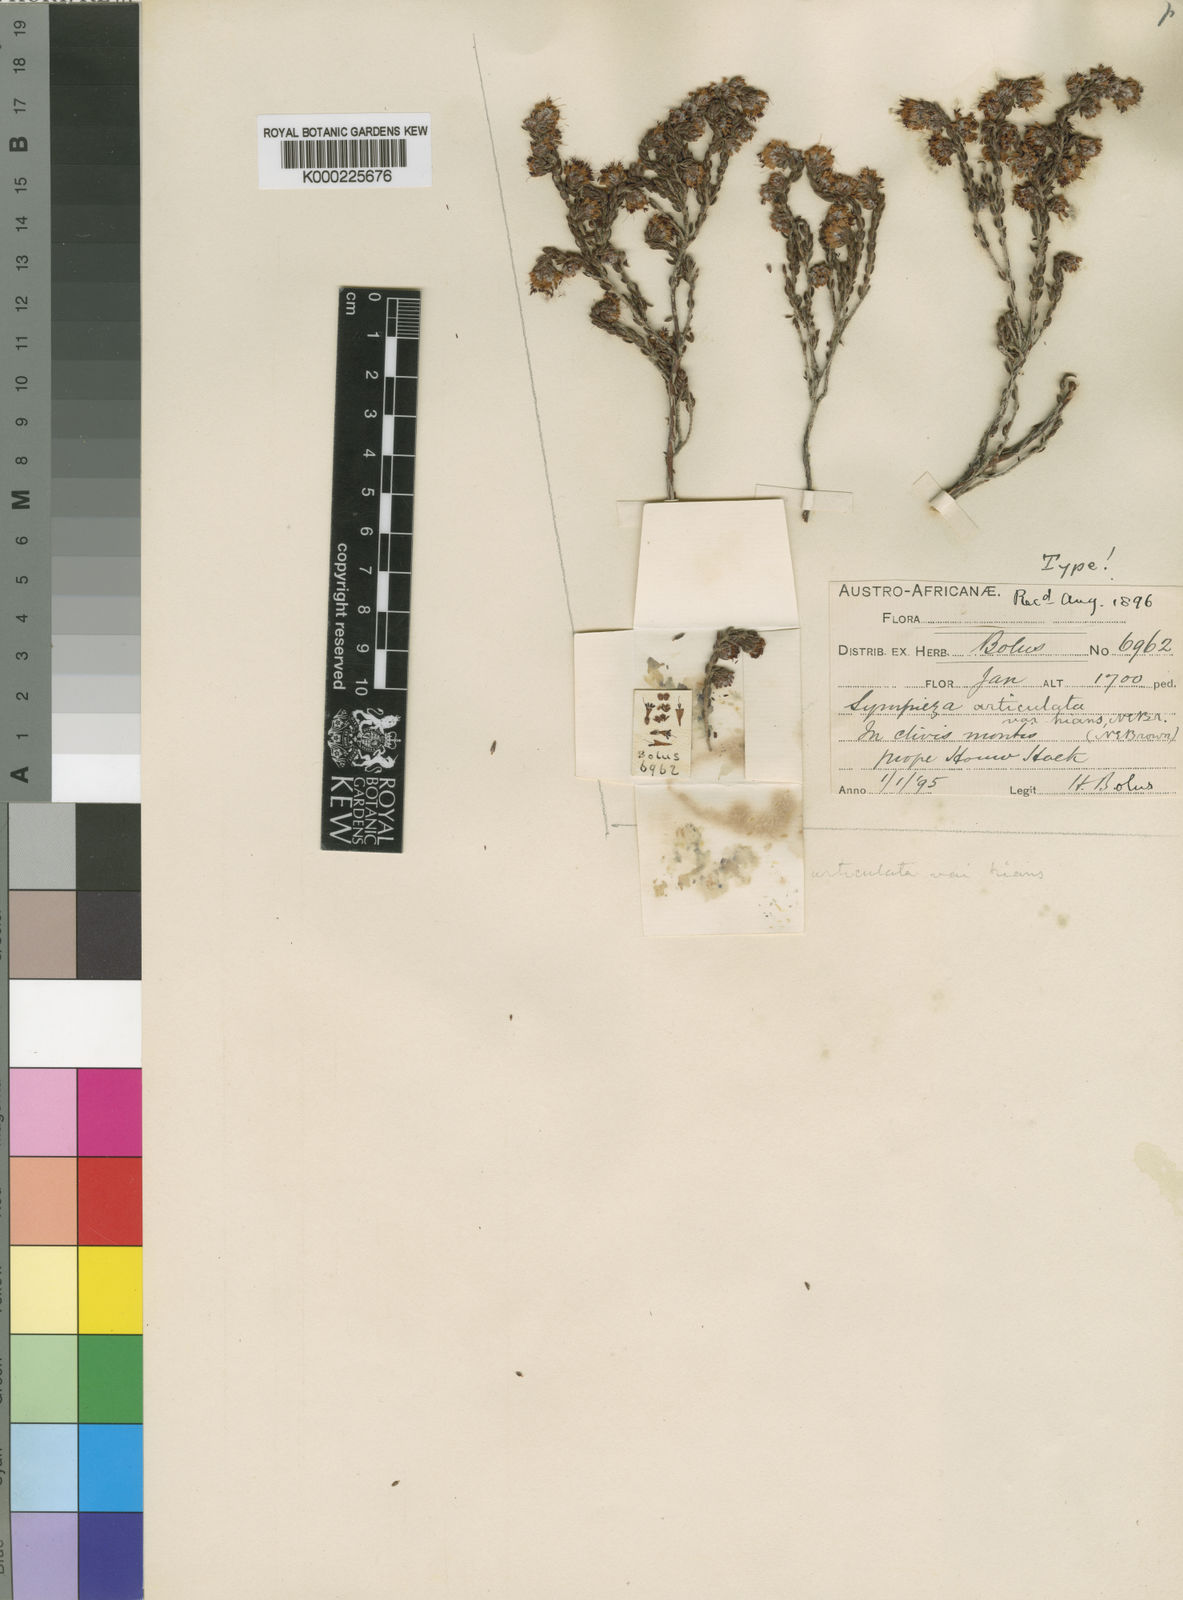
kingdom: Plantae
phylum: Tracheophyta
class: Magnoliopsida
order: Ericales
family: Ericaceae
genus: Erica
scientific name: Erica
